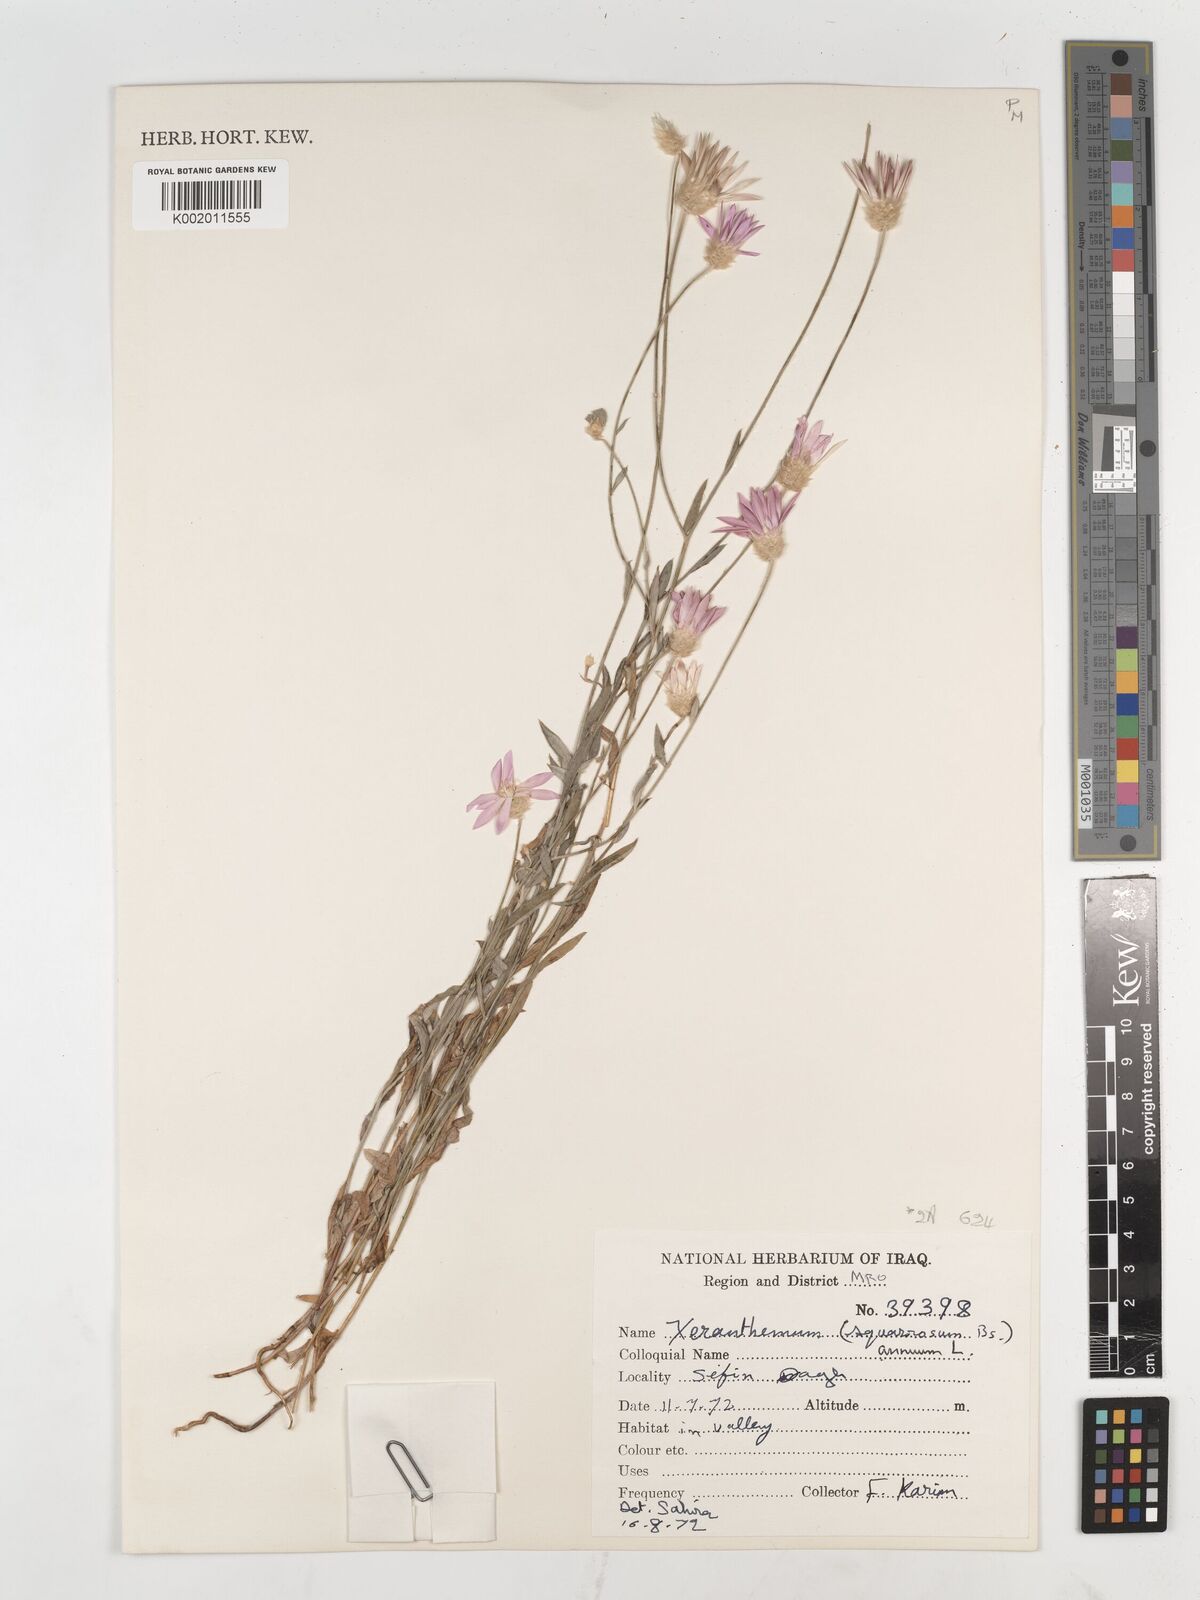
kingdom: Plantae
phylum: Tracheophyta
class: Magnoliopsida
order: Asterales
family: Asteraceae
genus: Xeranthemum
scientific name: Xeranthemum annuum
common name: Immortelle
